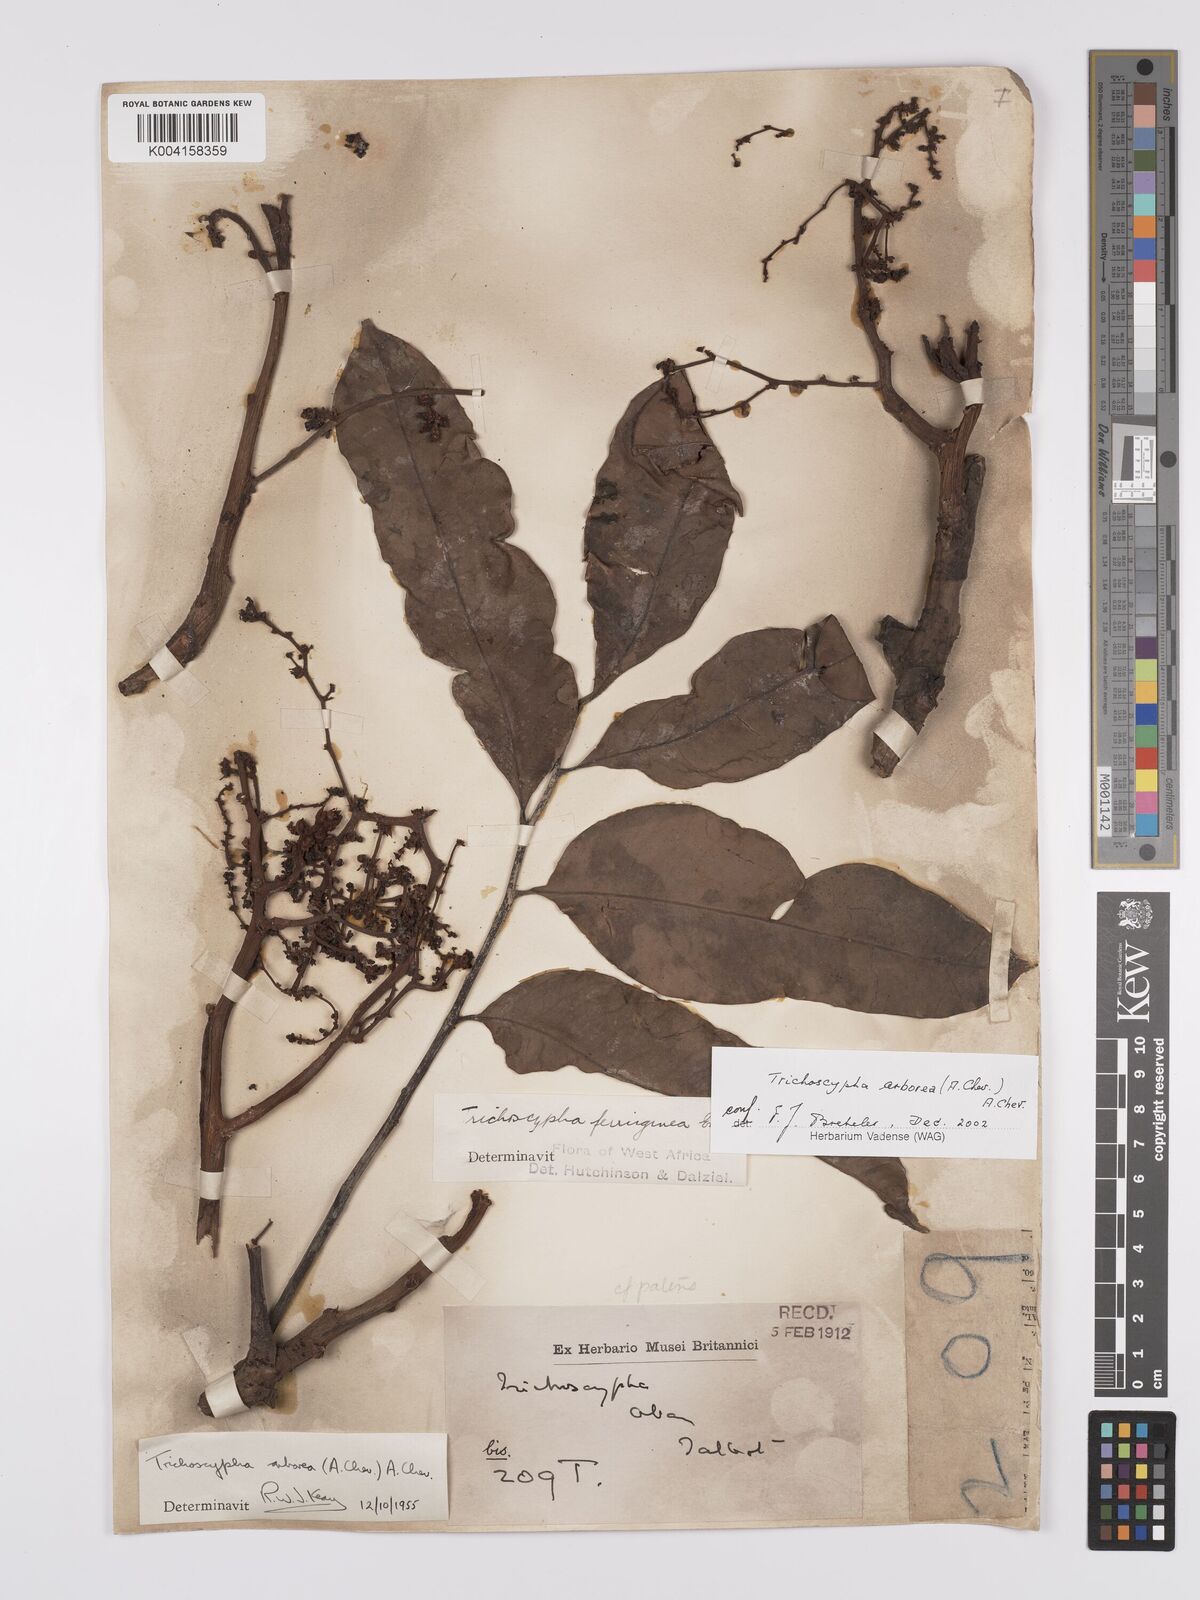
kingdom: Plantae
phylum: Tracheophyta
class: Magnoliopsida
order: Sapindales
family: Anacardiaceae
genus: Trichoscypha
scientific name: Trichoscypha arborea
